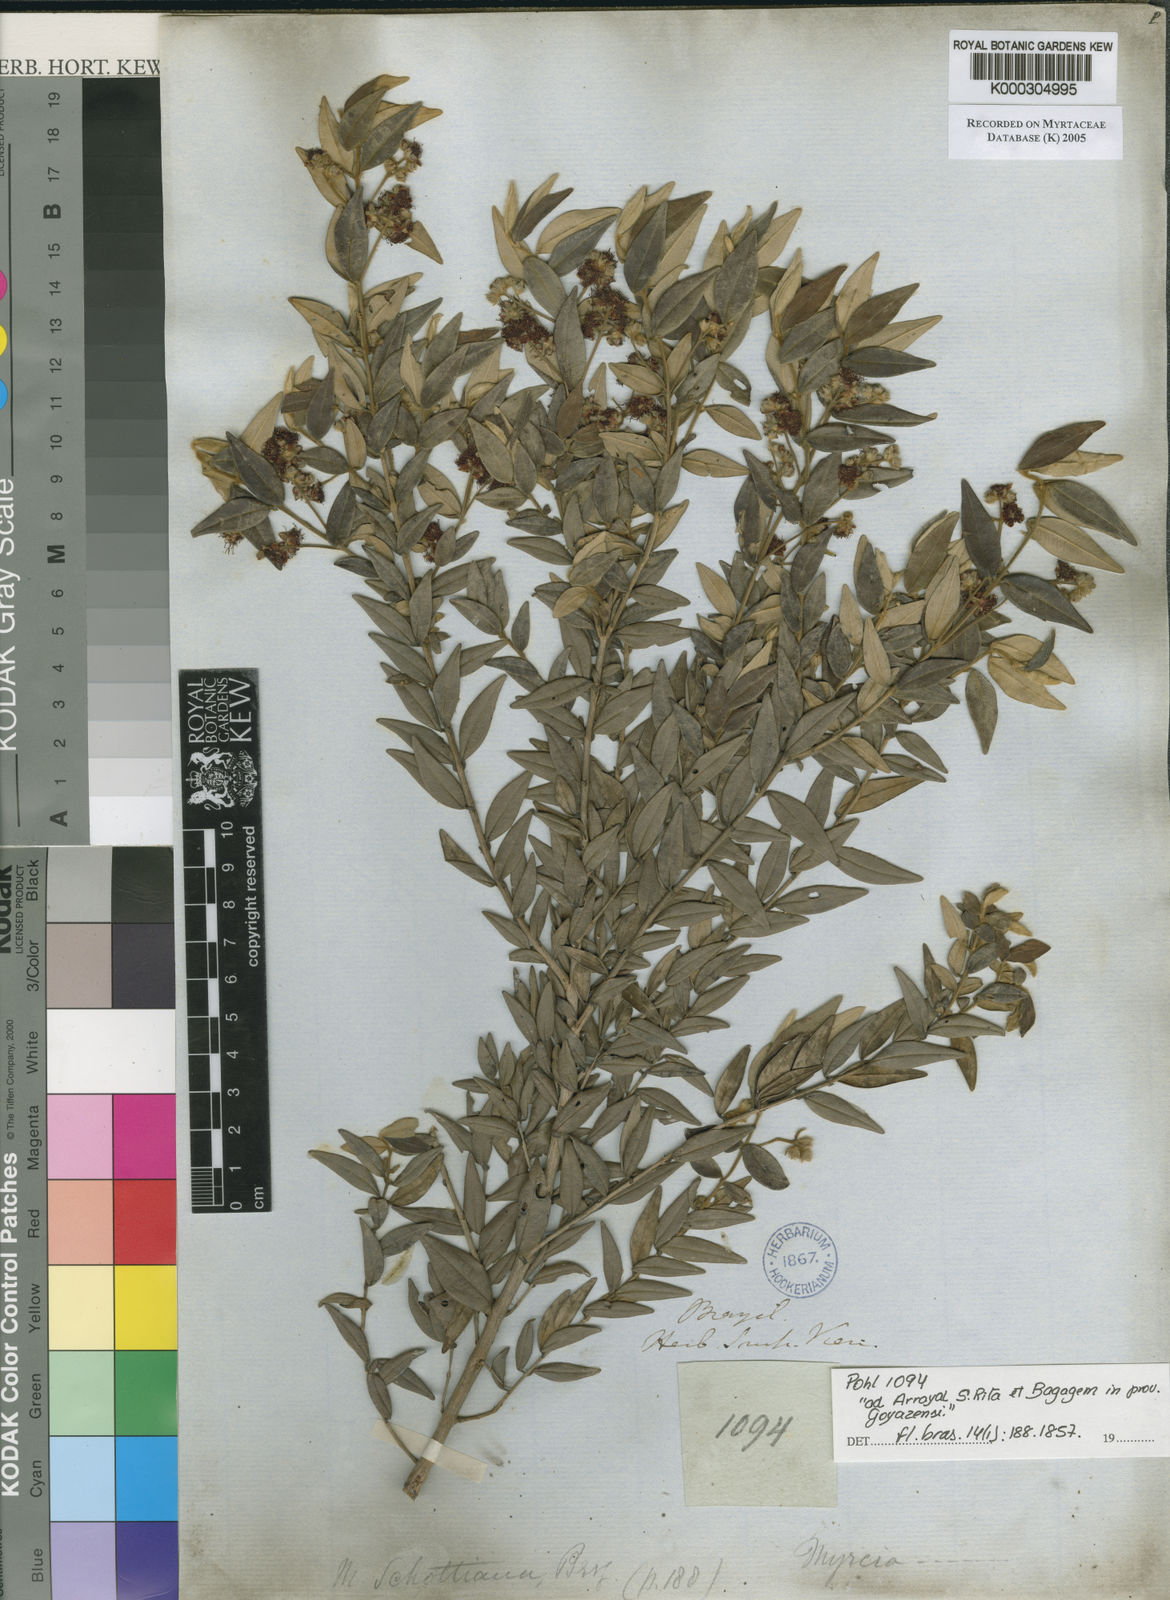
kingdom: Plantae
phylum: Tracheophyta
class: Magnoliopsida
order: Myrtales
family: Myrtaceae
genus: Myrcia
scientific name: Myrcia schottiana
